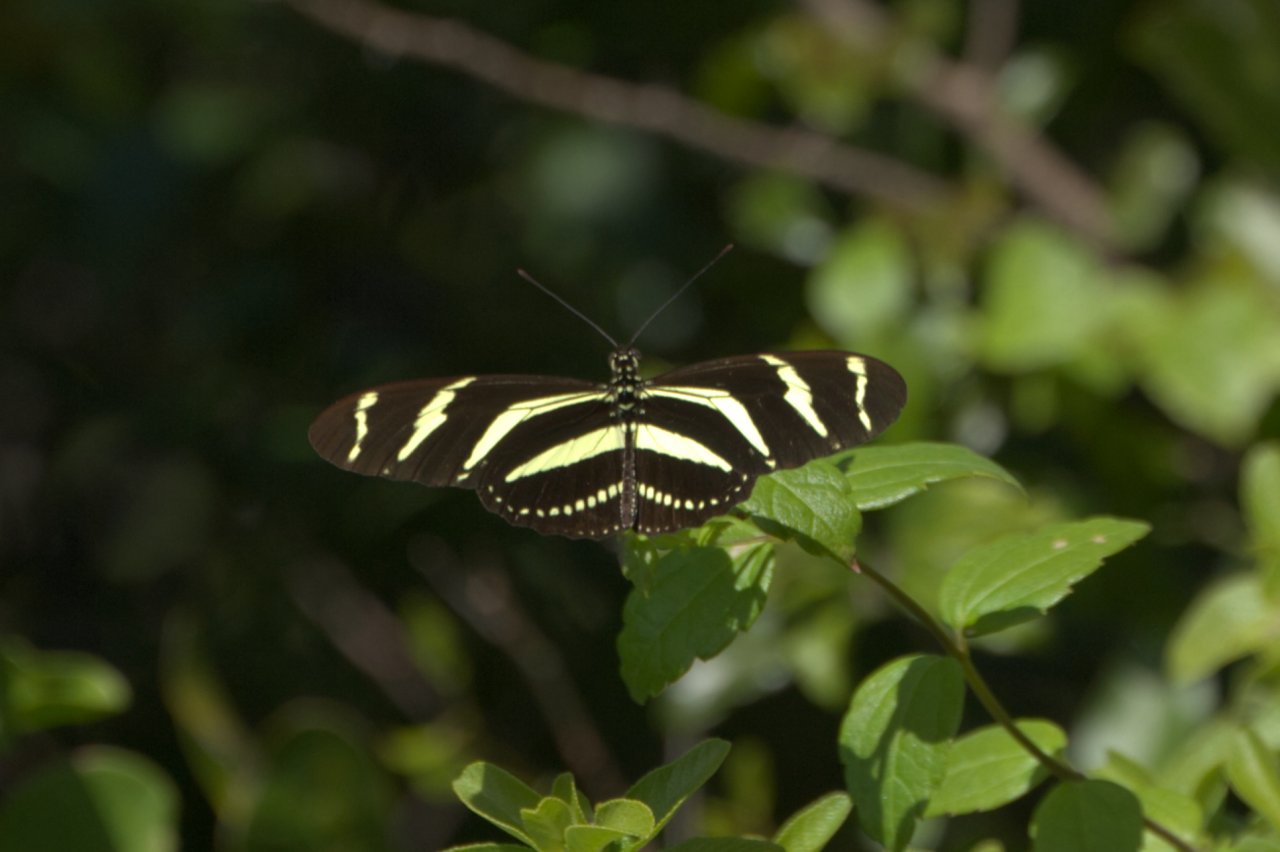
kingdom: Animalia
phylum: Arthropoda
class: Insecta
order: Lepidoptera
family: Nymphalidae
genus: Heliconius
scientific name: Heliconius charithonia
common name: Zebra Longwing
